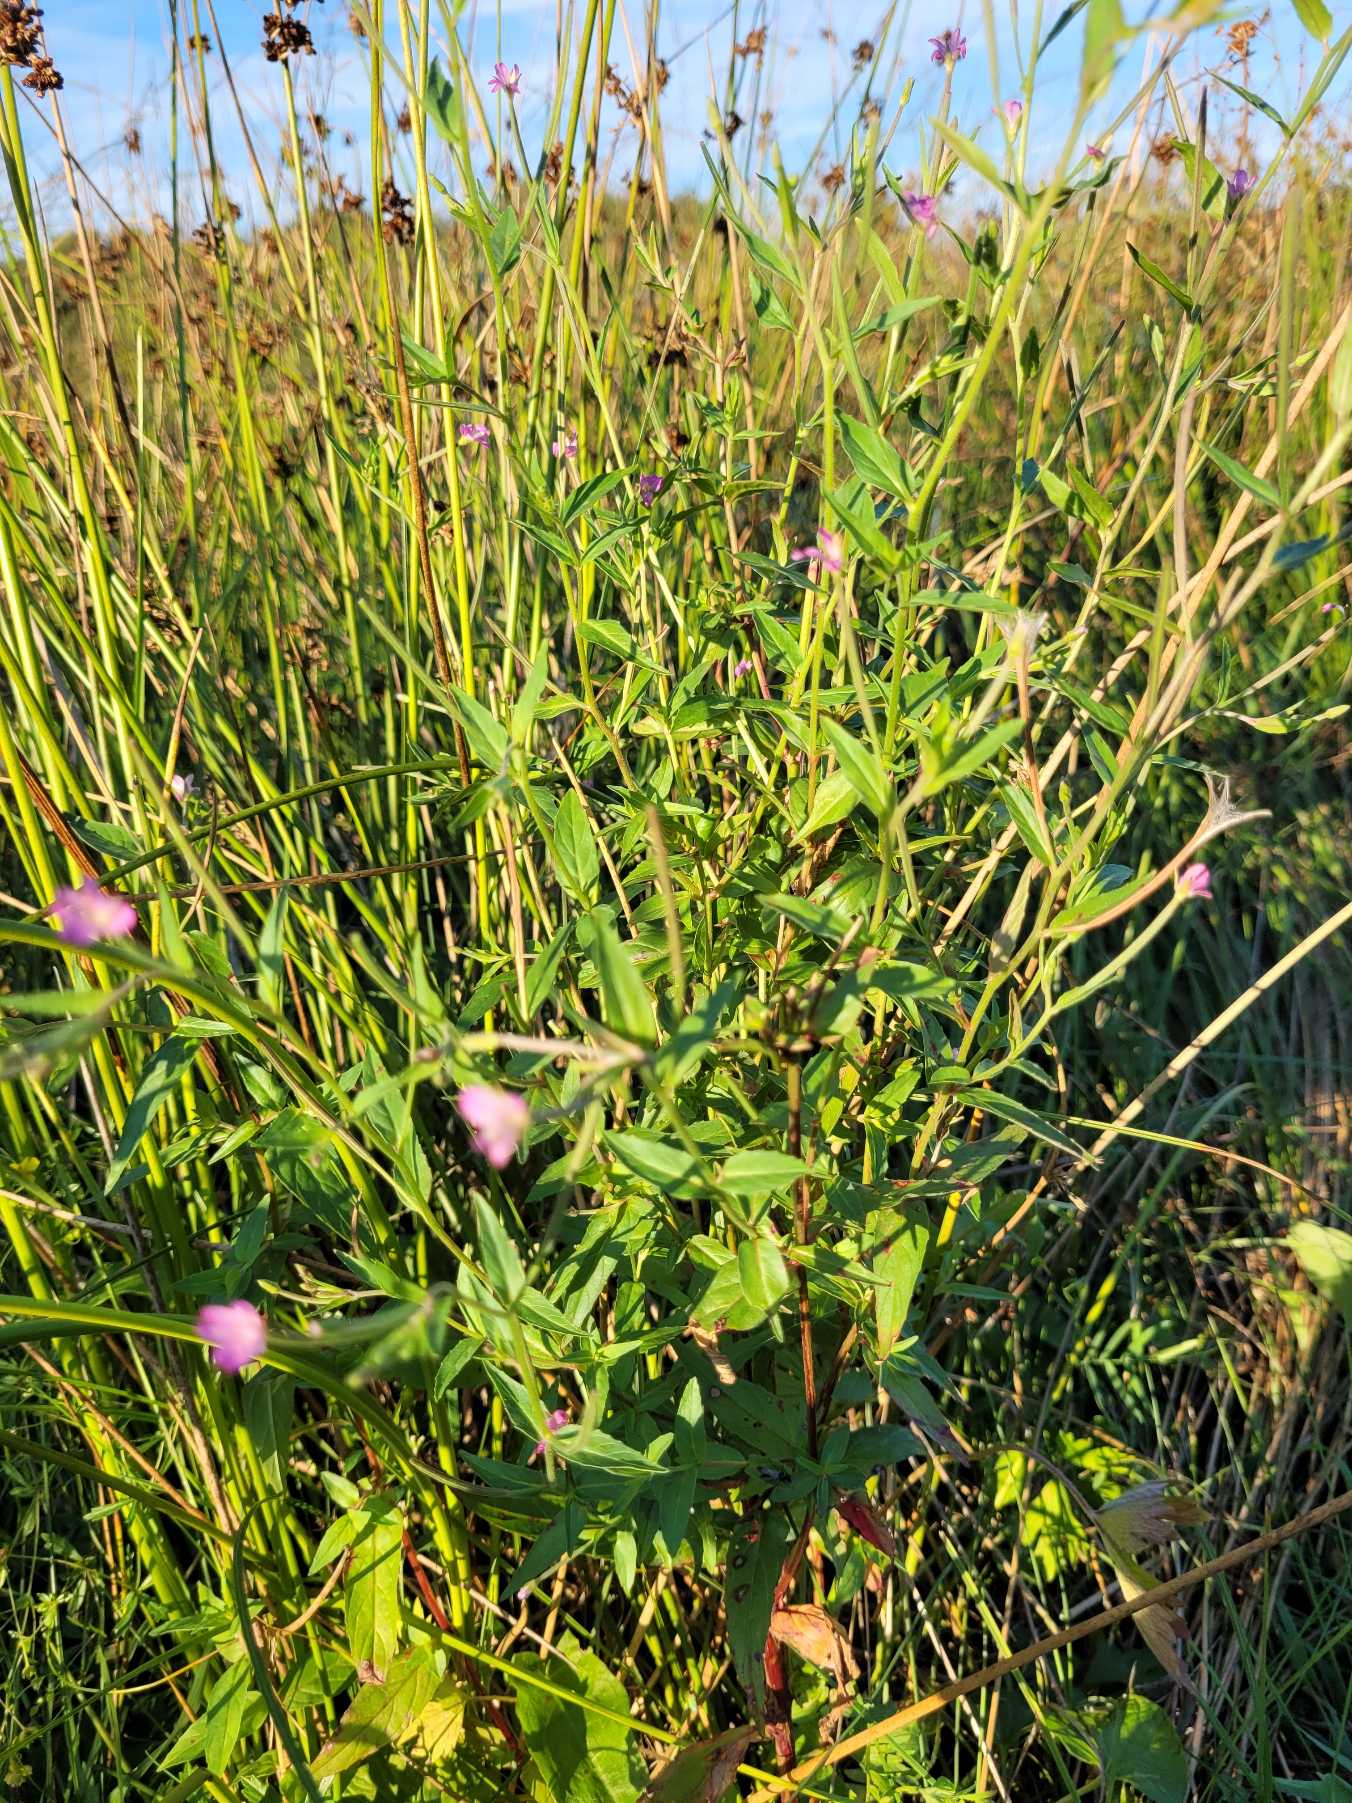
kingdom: Plantae
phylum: Tracheophyta
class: Magnoliopsida
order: Myrtales
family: Onagraceae
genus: Epilobium
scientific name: Epilobium
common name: Dueurtslægten
